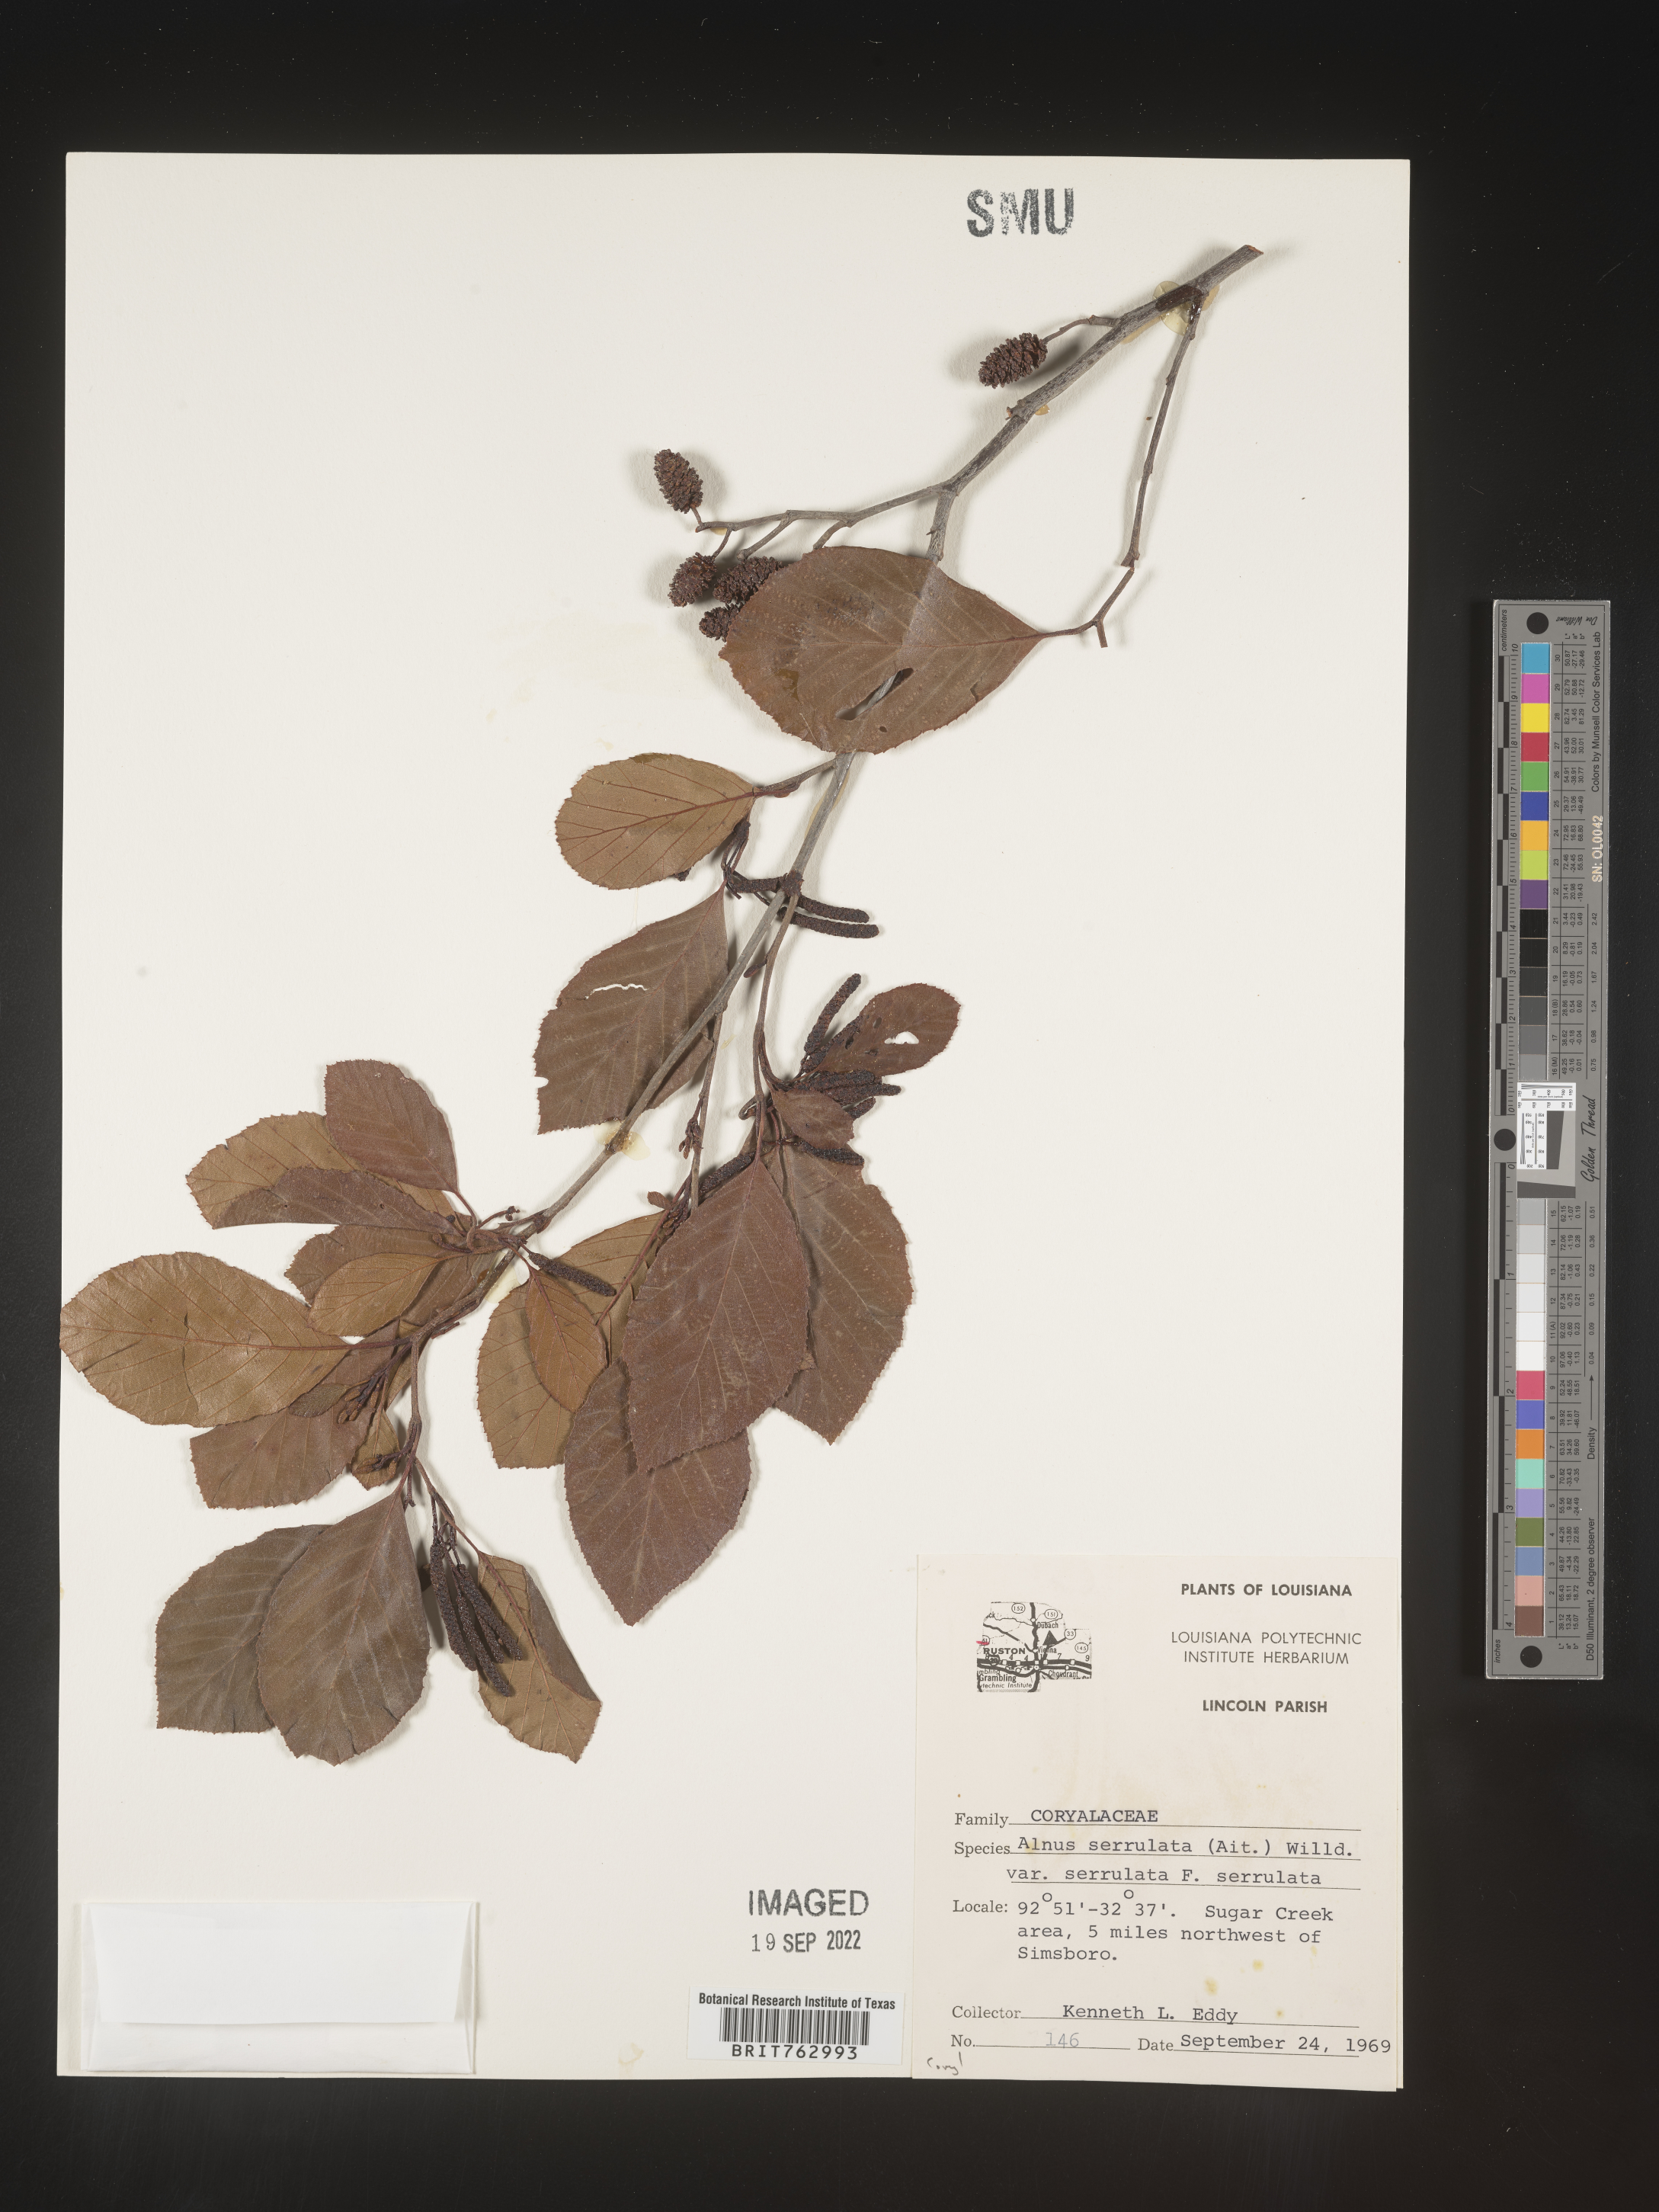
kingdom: Plantae
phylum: Tracheophyta
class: Magnoliopsida
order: Fagales
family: Betulaceae
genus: Alnus
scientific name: Alnus serrulata
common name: Hazel alder
